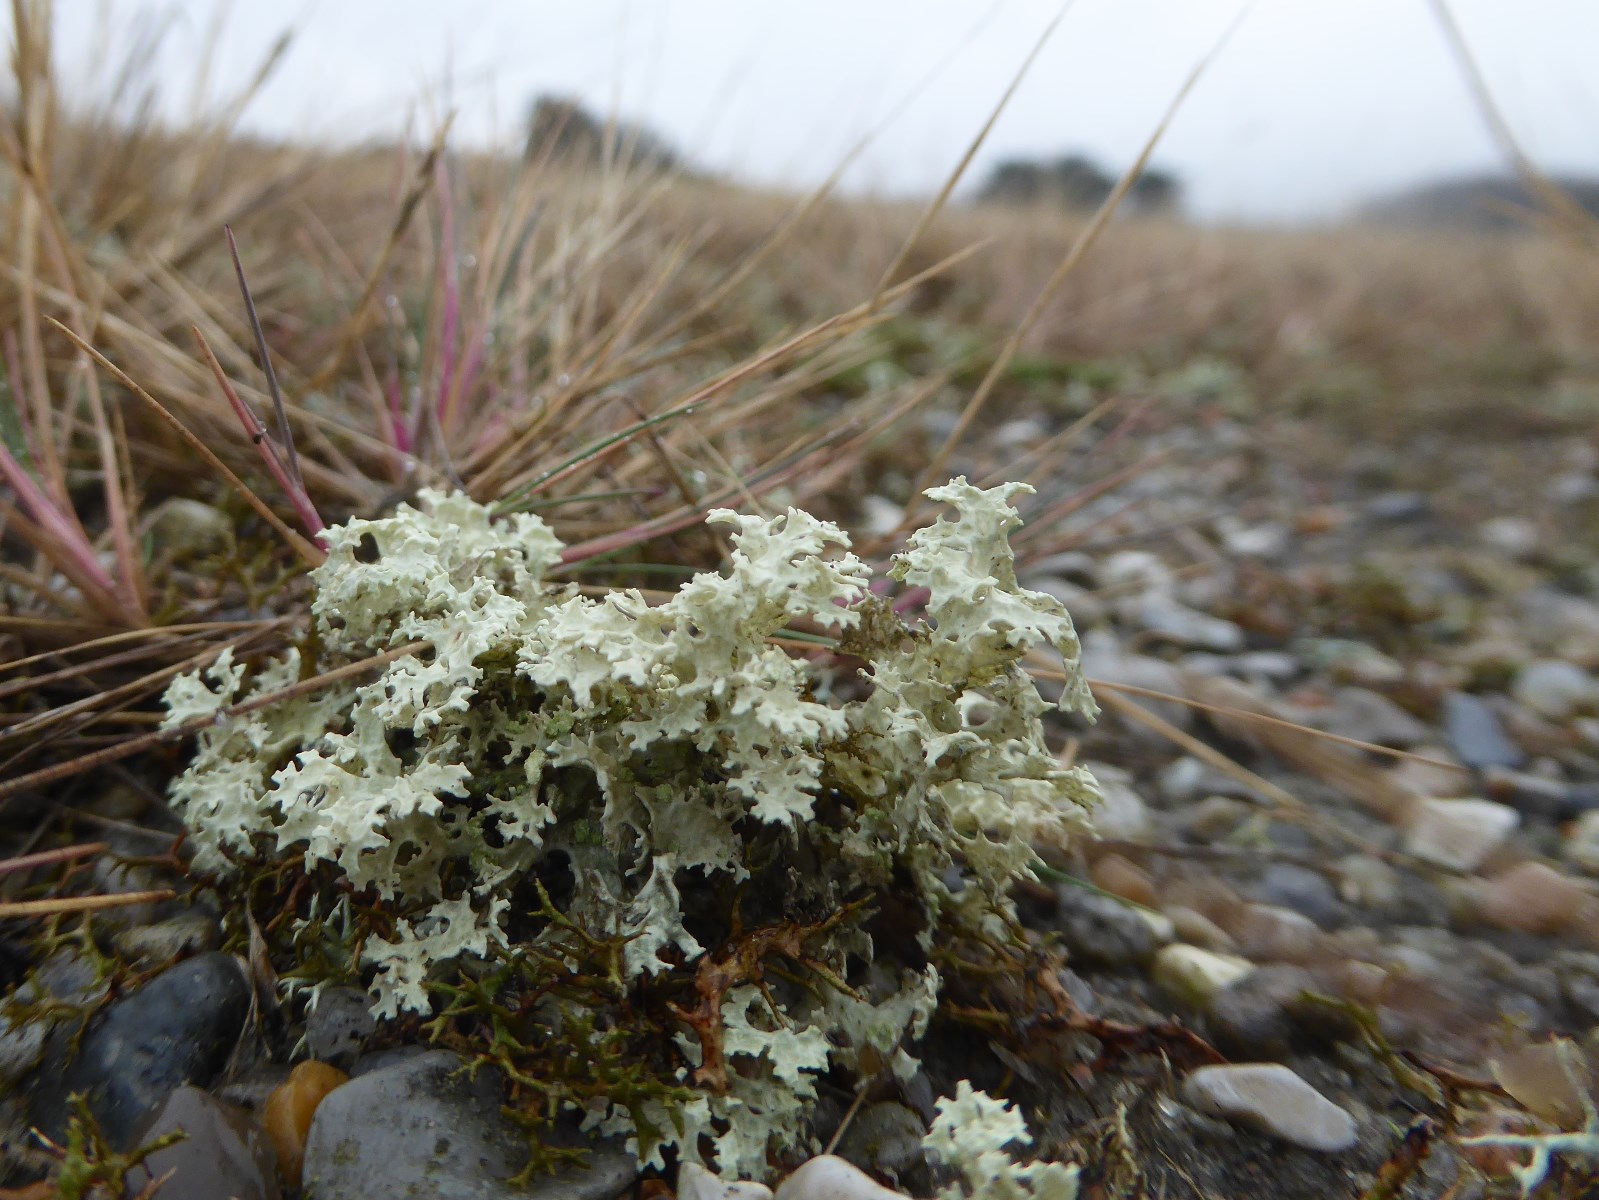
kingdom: Fungi
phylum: Ascomycota
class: Lecanoromycetes
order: Lecanorales
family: Parmeliaceae
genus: Nephromopsis
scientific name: Nephromopsis nivalis
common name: sne-kruslav
